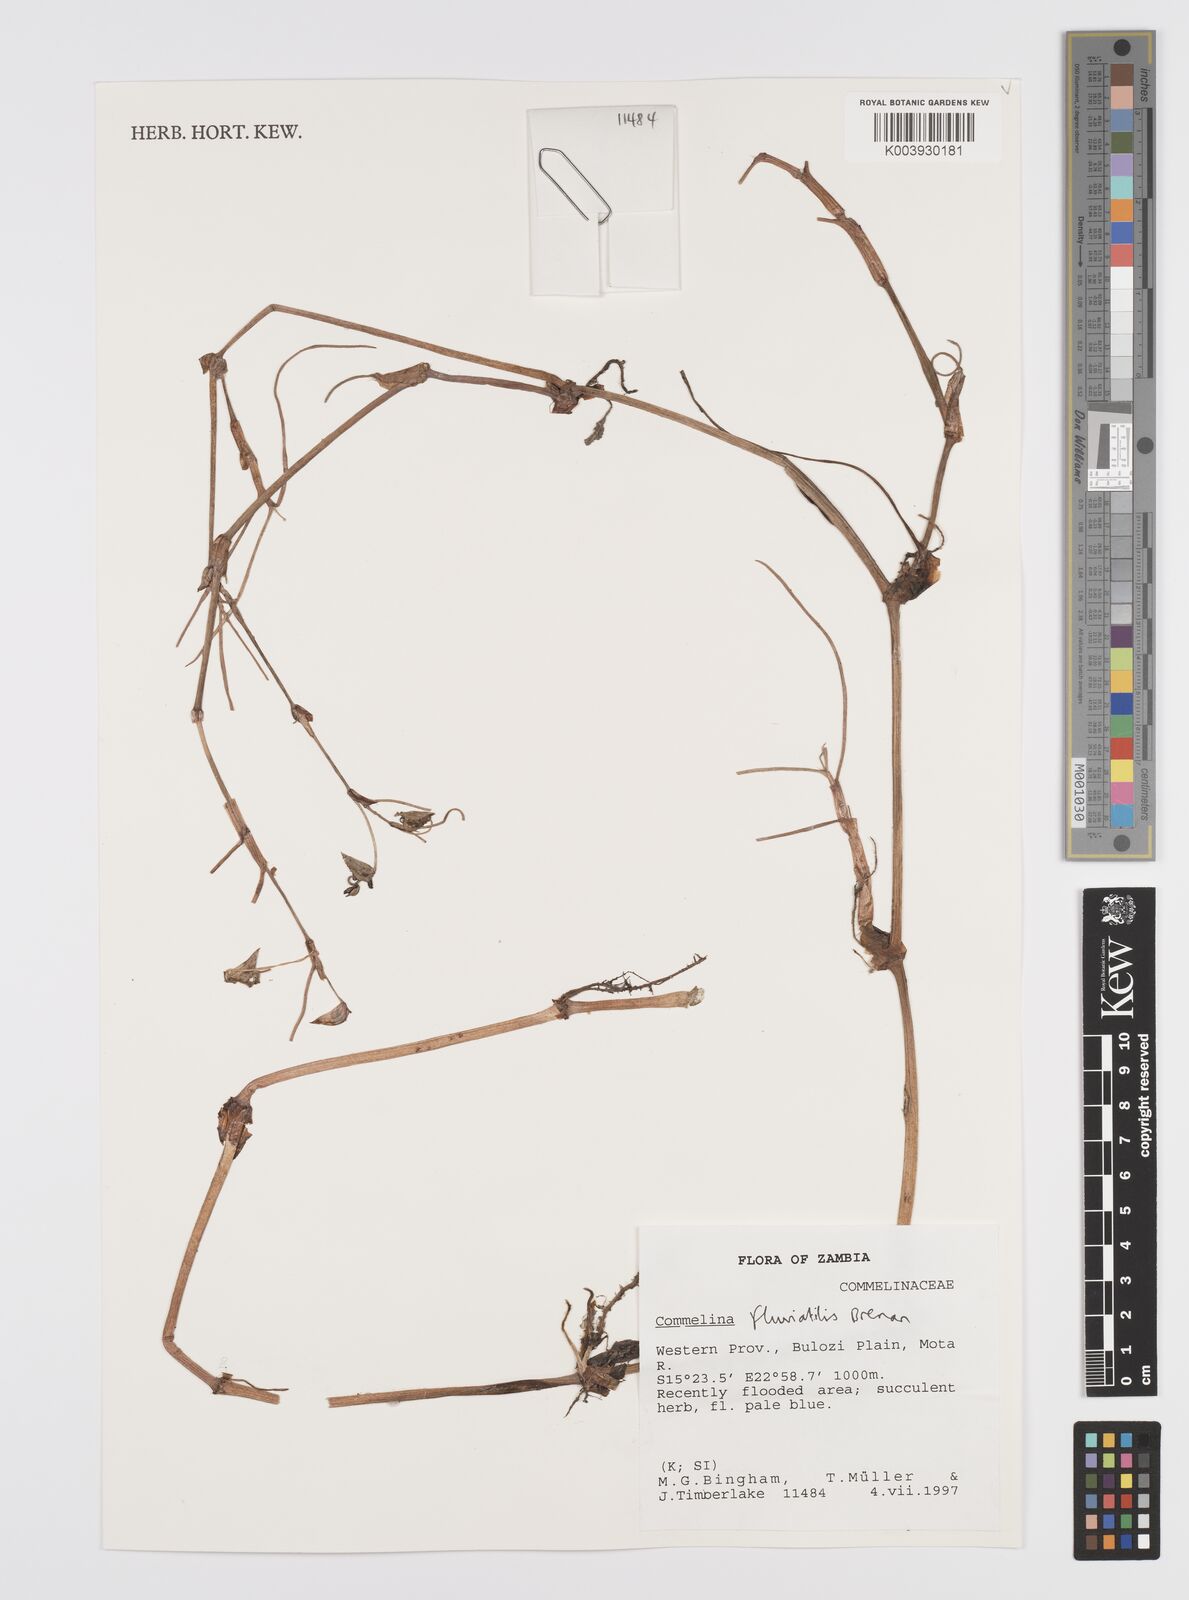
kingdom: Plantae
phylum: Tracheophyta
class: Liliopsida
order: Commelinales
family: Commelinaceae
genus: Commelina
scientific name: Commelina fluviatilis
